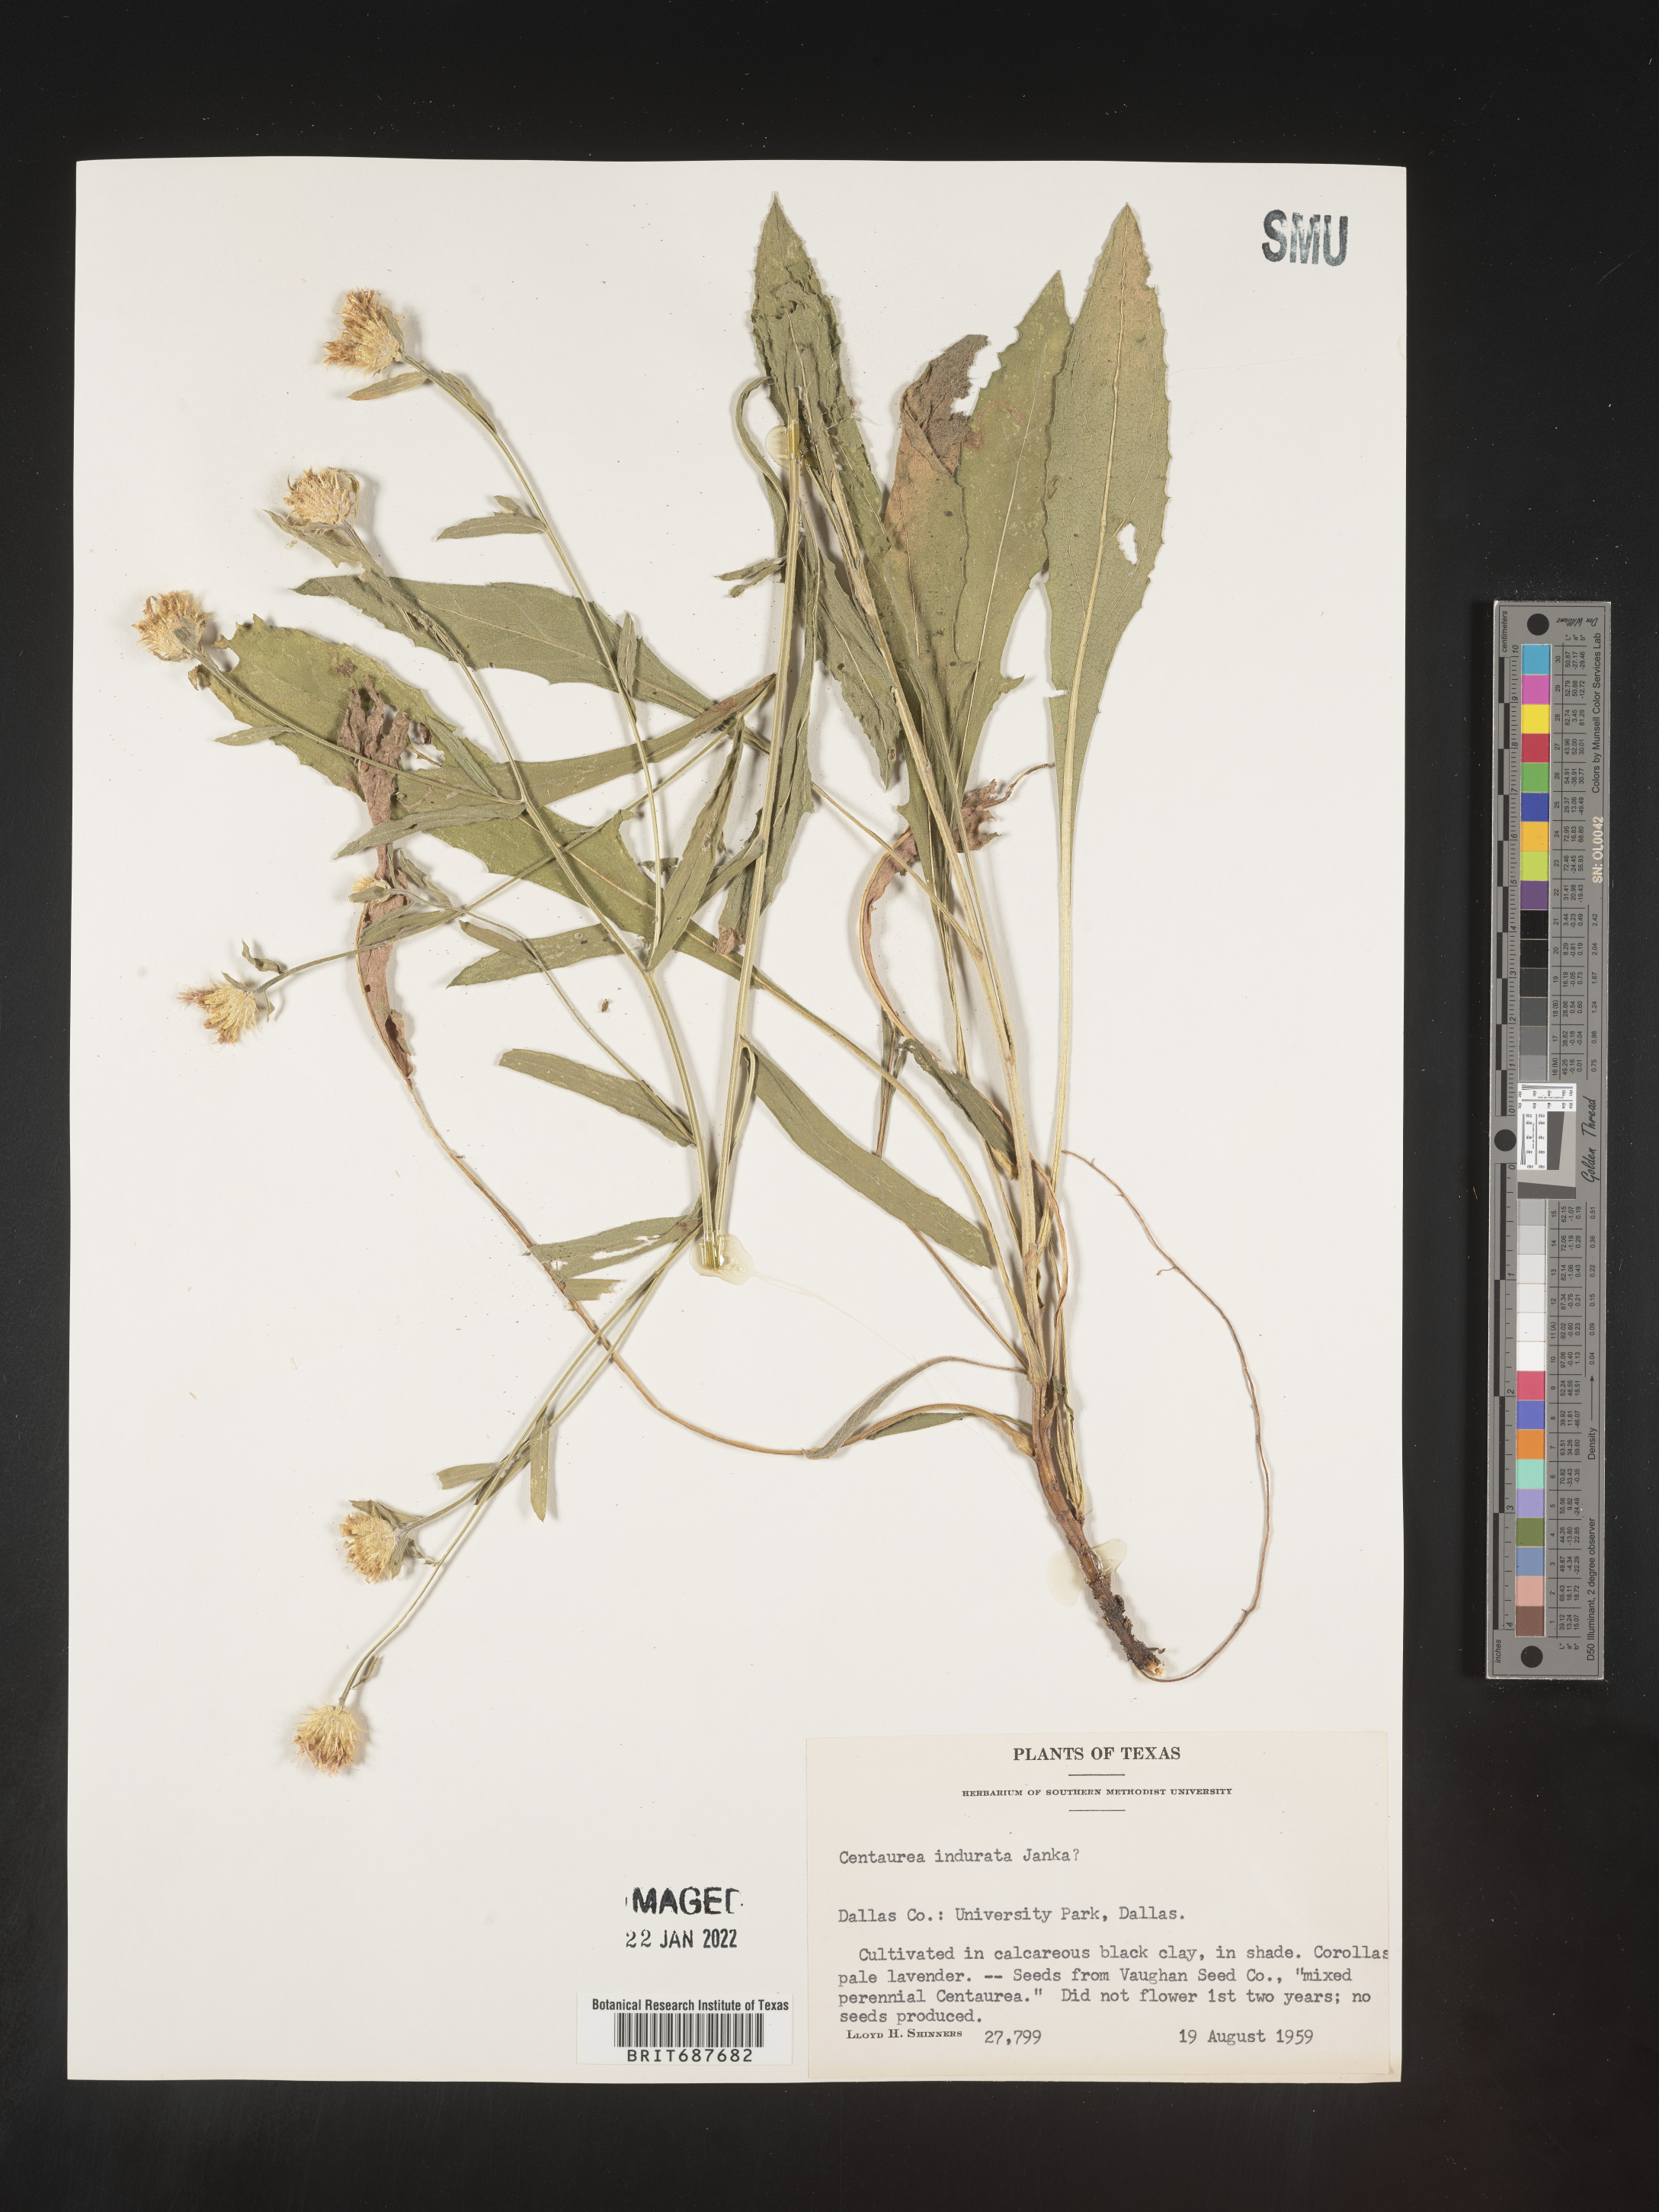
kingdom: Plantae
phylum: Tracheophyta
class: Magnoliopsida
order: Asterales
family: Asteraceae
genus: Centaurea
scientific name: Centaurea
